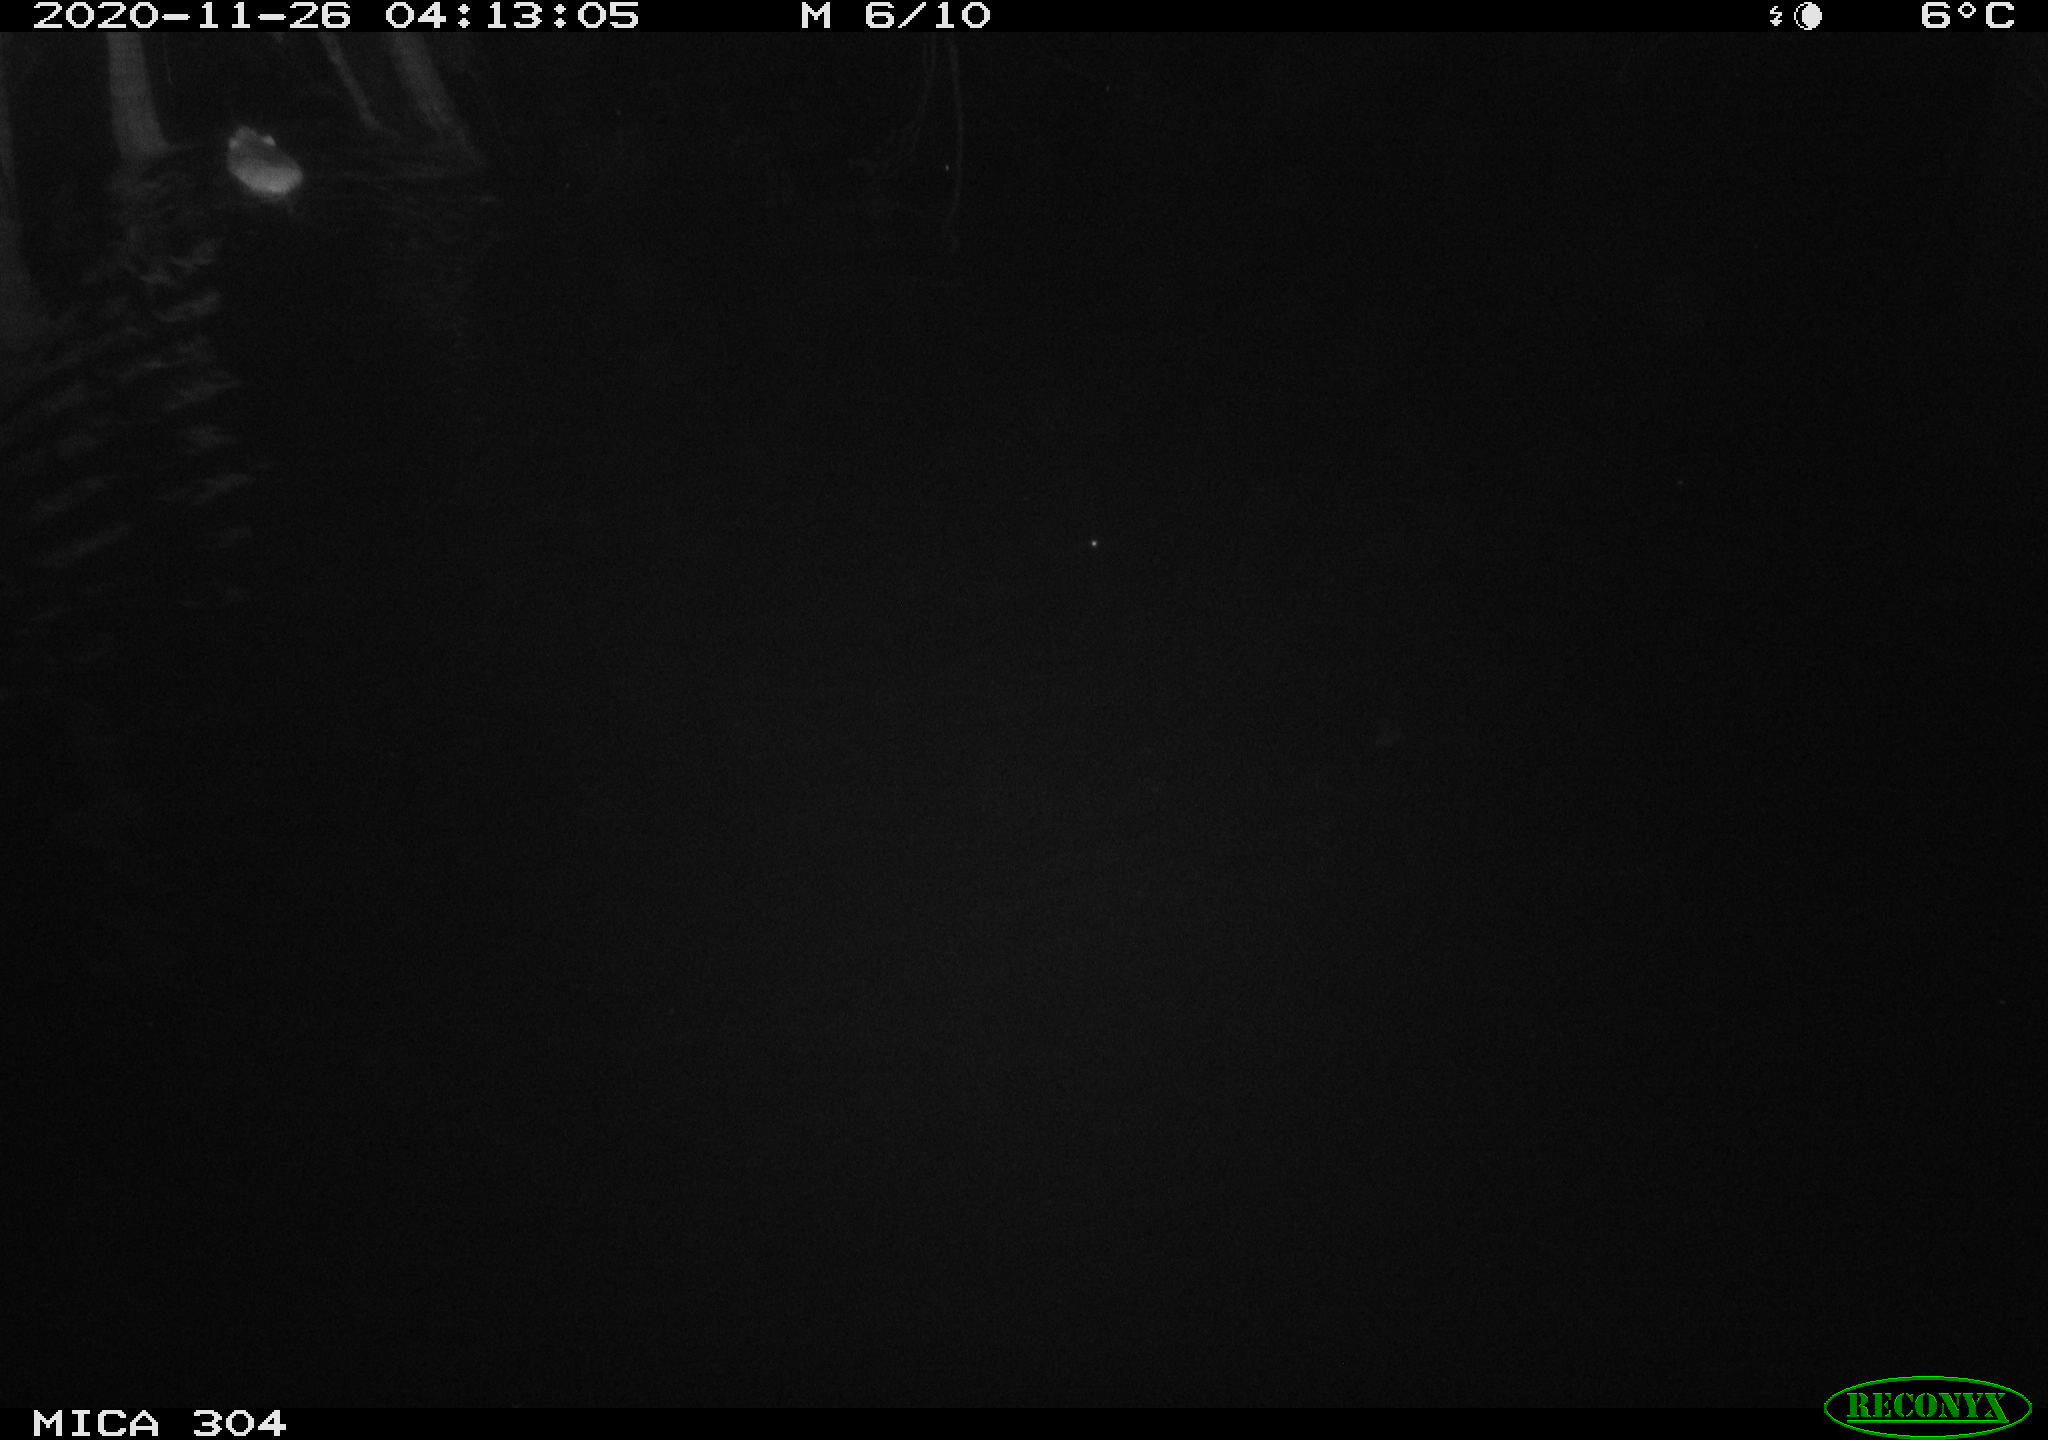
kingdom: Animalia
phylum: Chordata
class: Mammalia
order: Rodentia
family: Muridae
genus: Rattus
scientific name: Rattus norvegicus
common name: Brown rat
